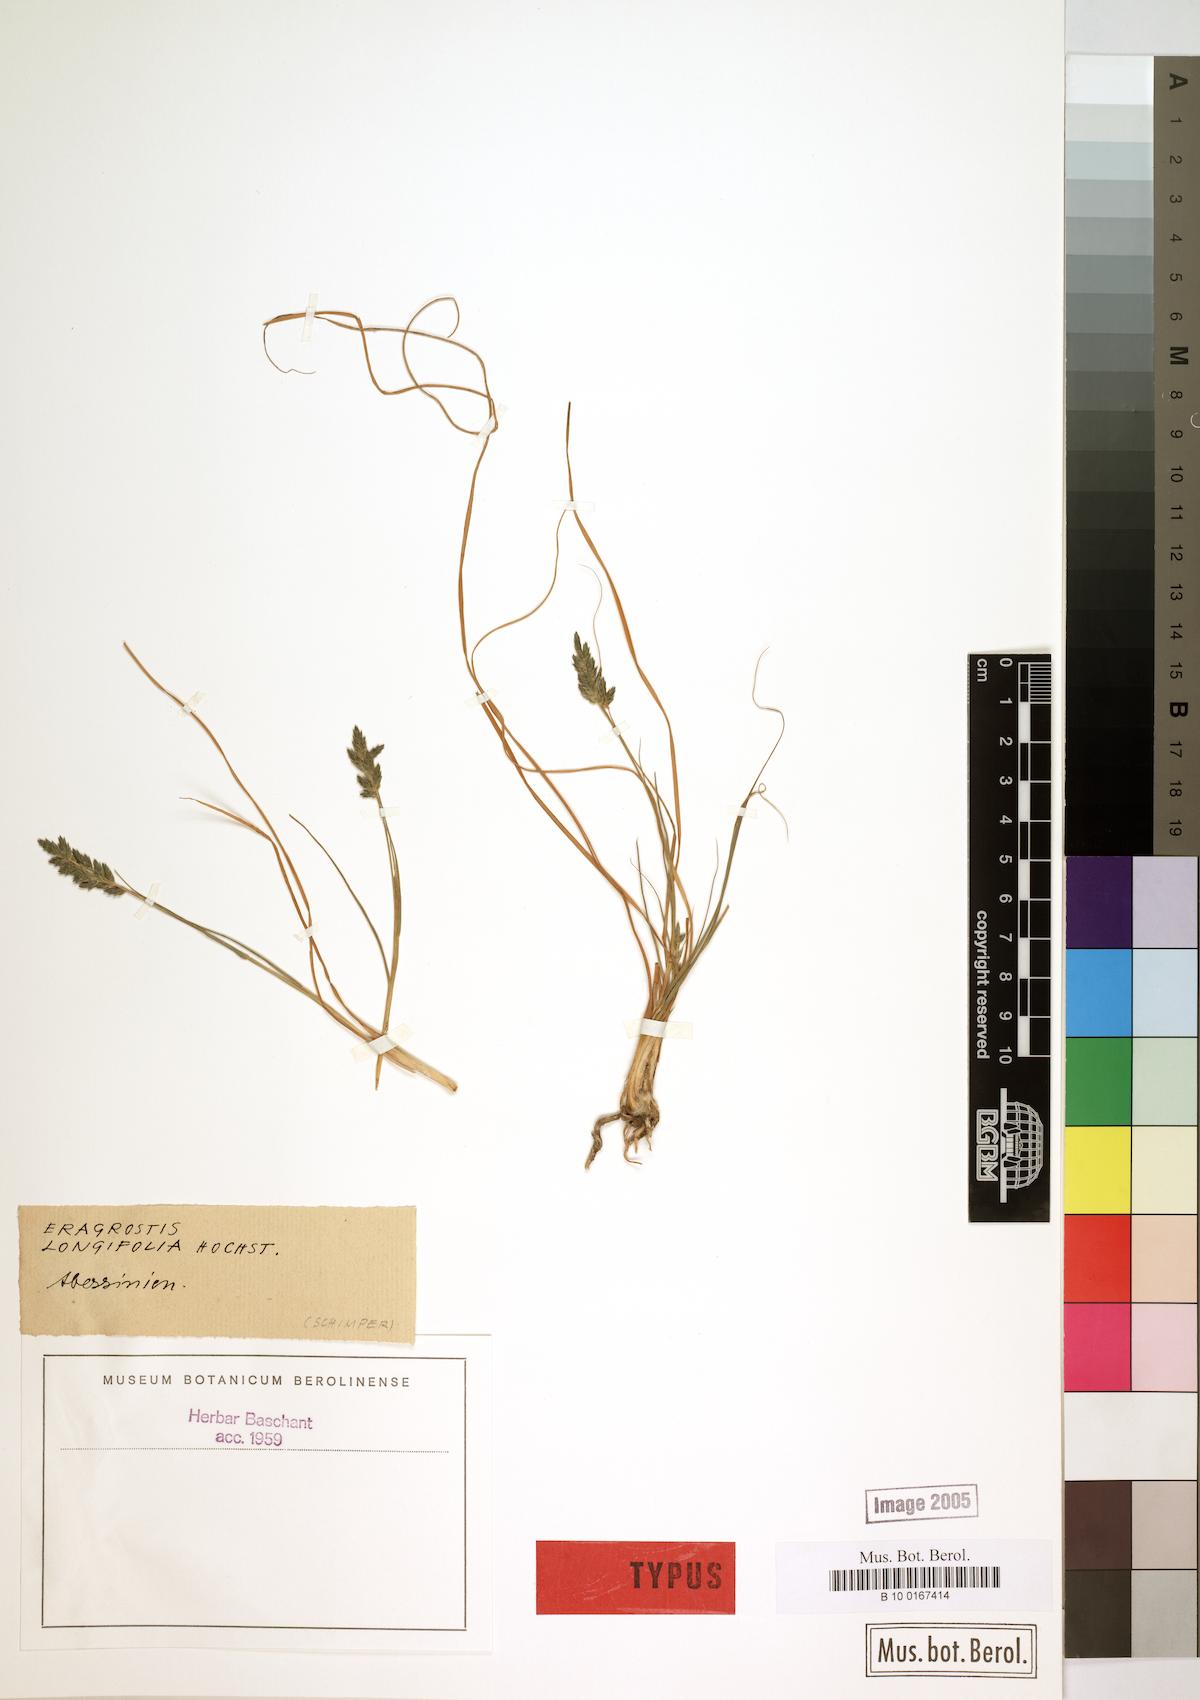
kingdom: Plantae
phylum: Tracheophyta
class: Liliopsida
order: Poales
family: Poaceae
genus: Eragrostis
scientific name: Eragrostis longifolia
